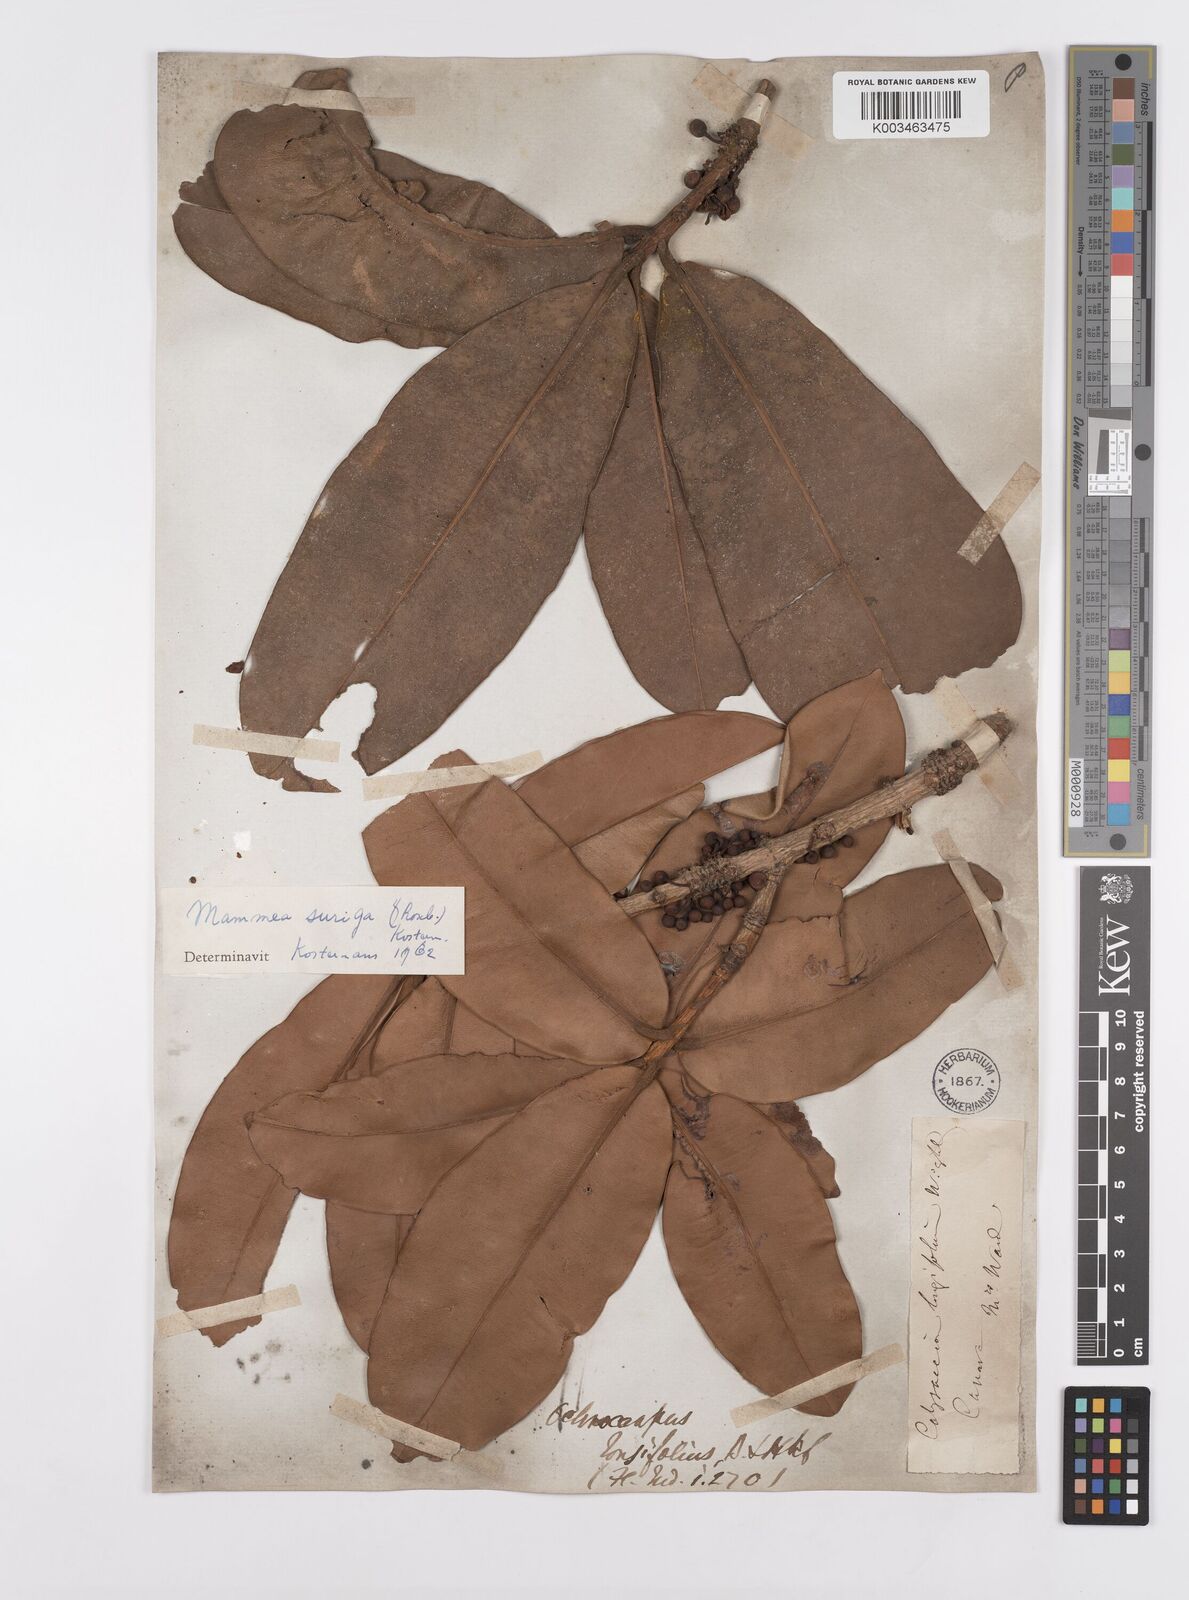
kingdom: Plantae
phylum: Tracheophyta
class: Magnoliopsida
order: Malpighiales
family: Calophyllaceae
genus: Mammea
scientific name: Mammea suriga
